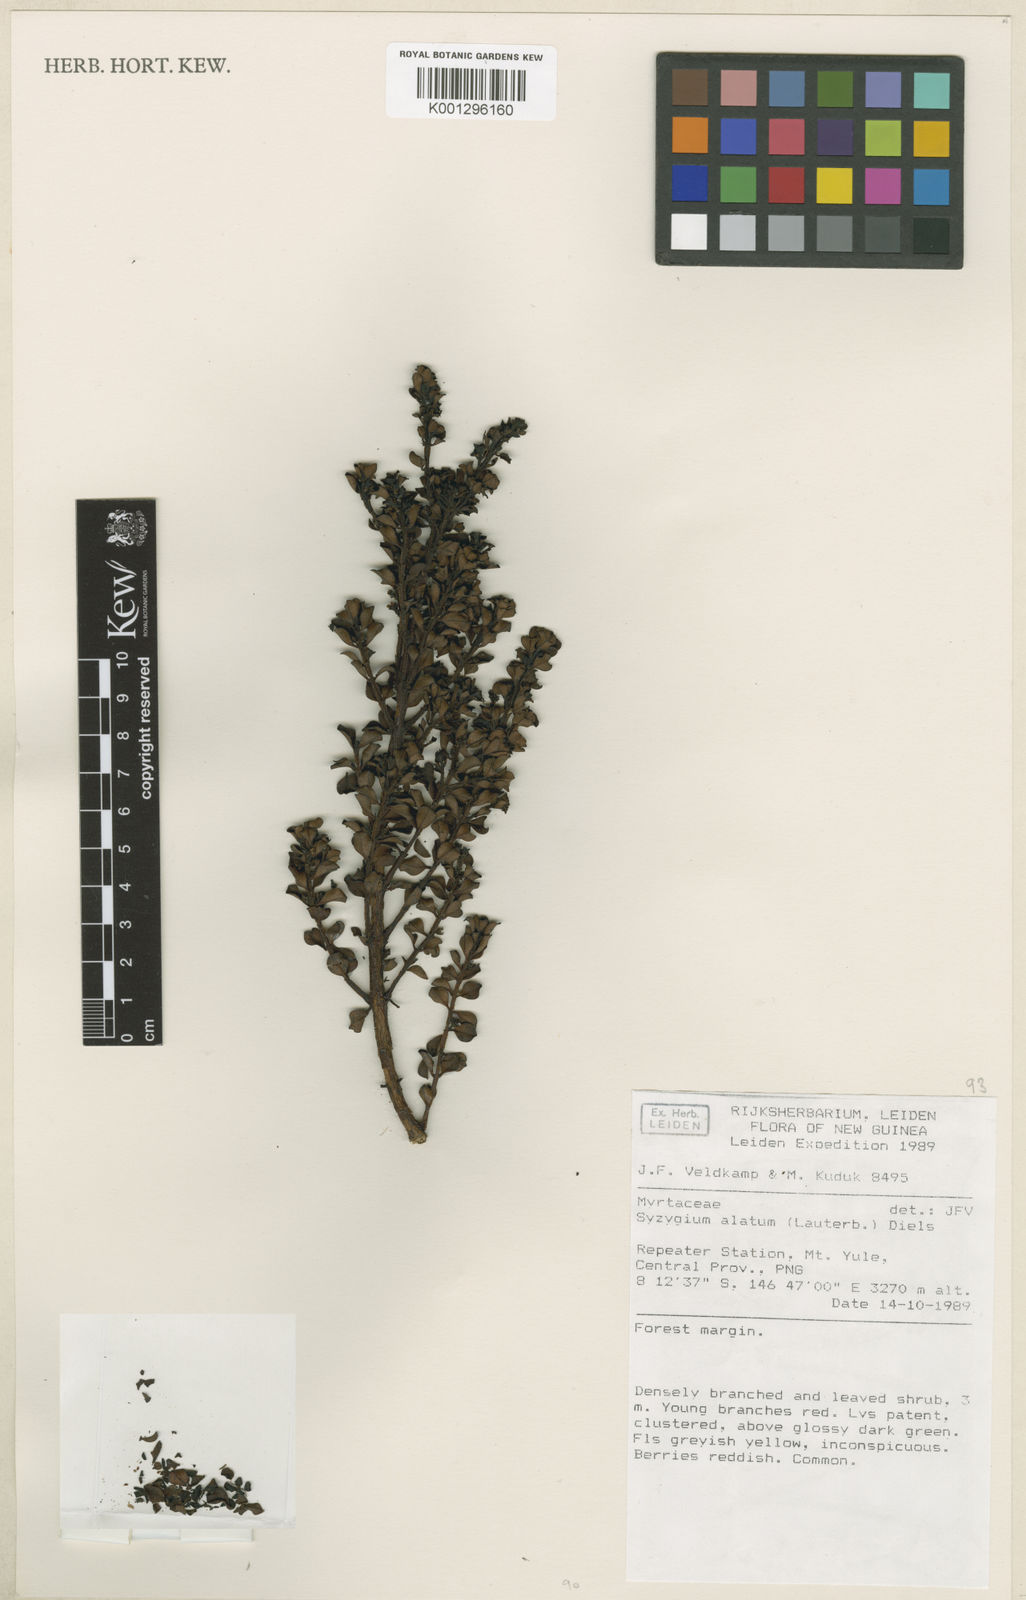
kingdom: Plantae
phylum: Tracheophyta
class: Magnoliopsida
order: Myrtales
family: Myrtaceae
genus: Syzygium
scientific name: Syzygium alatum
